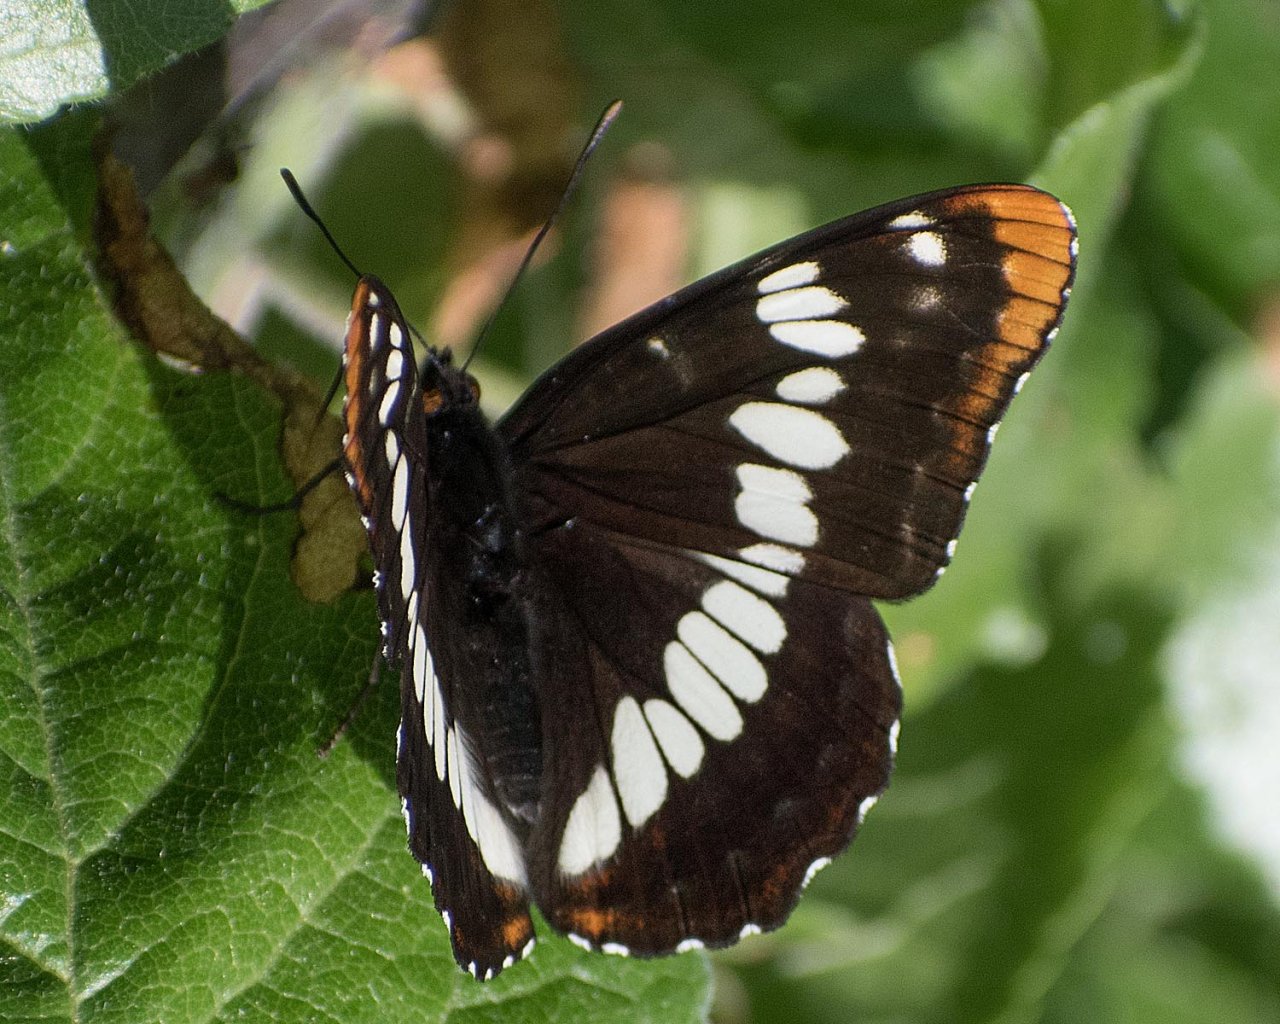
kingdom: Animalia
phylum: Arthropoda
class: Insecta
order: Lepidoptera
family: Nymphalidae
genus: Limenitis
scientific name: Limenitis lorquini
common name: Lorquin's Admiral
